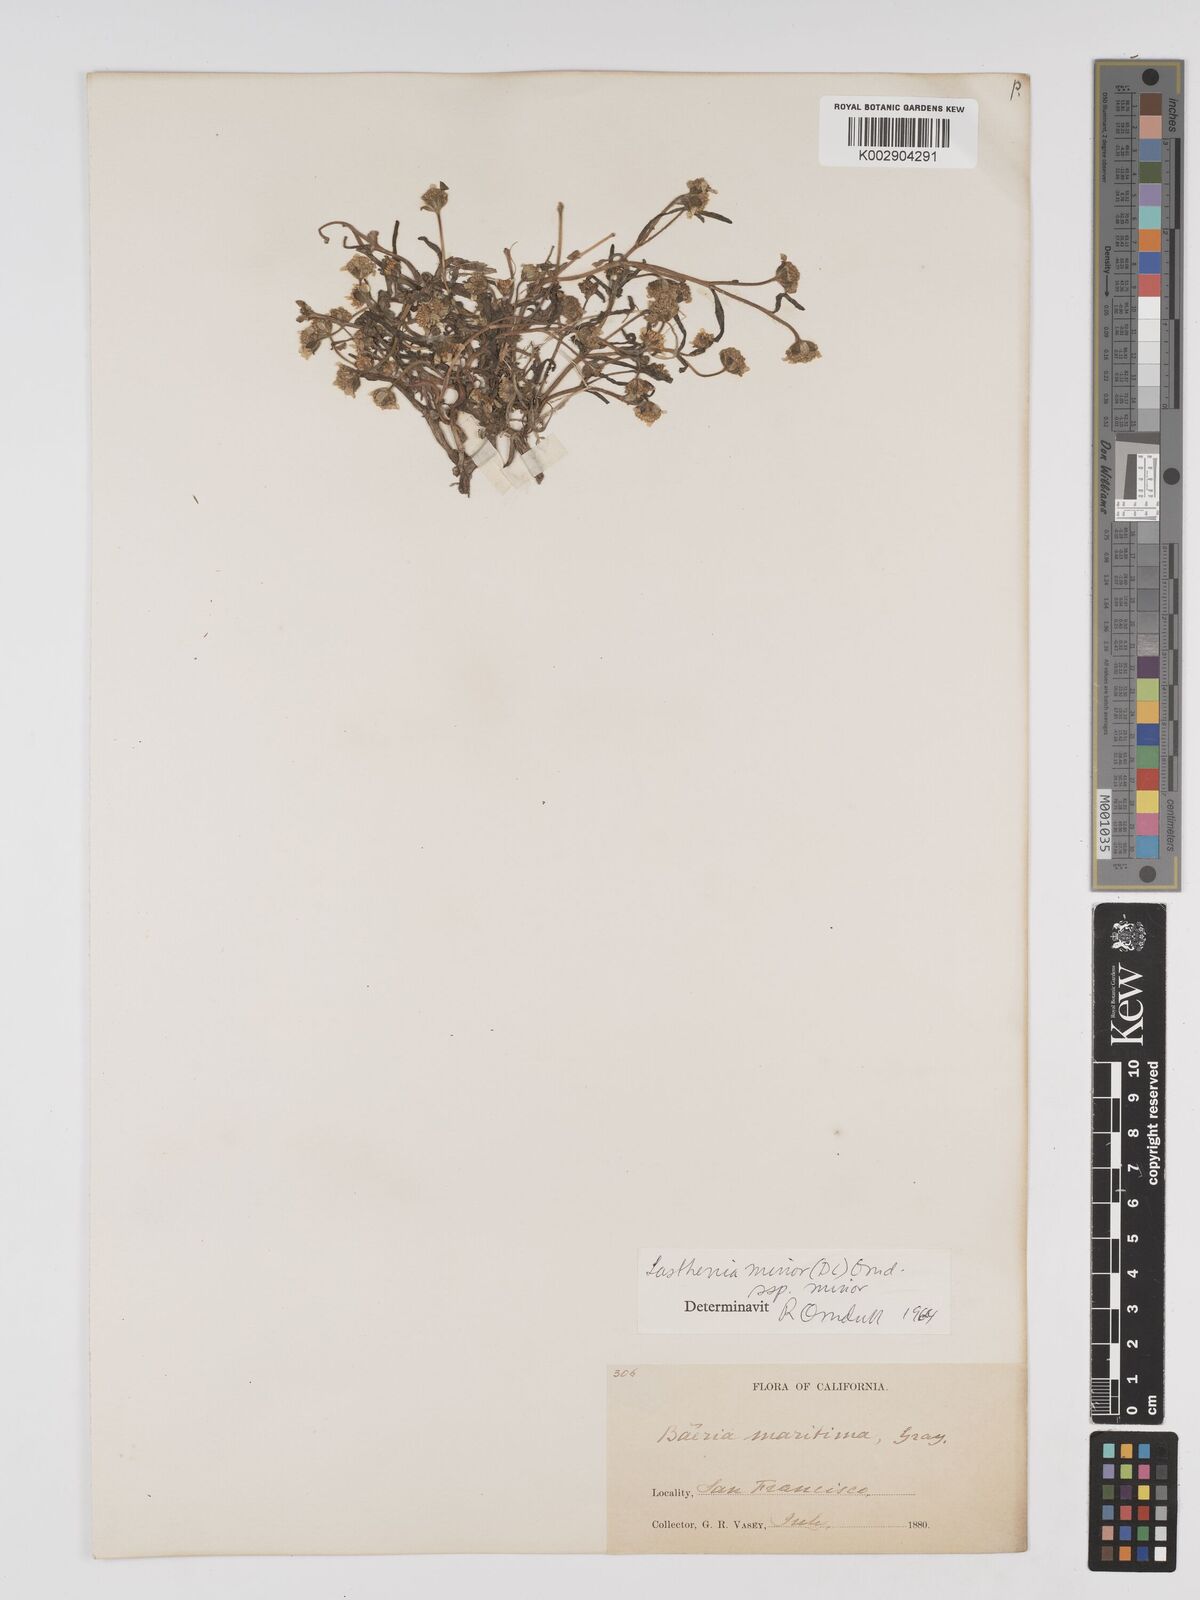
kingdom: Plantae
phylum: Tracheophyta
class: Magnoliopsida
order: Asterales
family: Asteraceae
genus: Lasthenia
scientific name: Lasthenia minor
